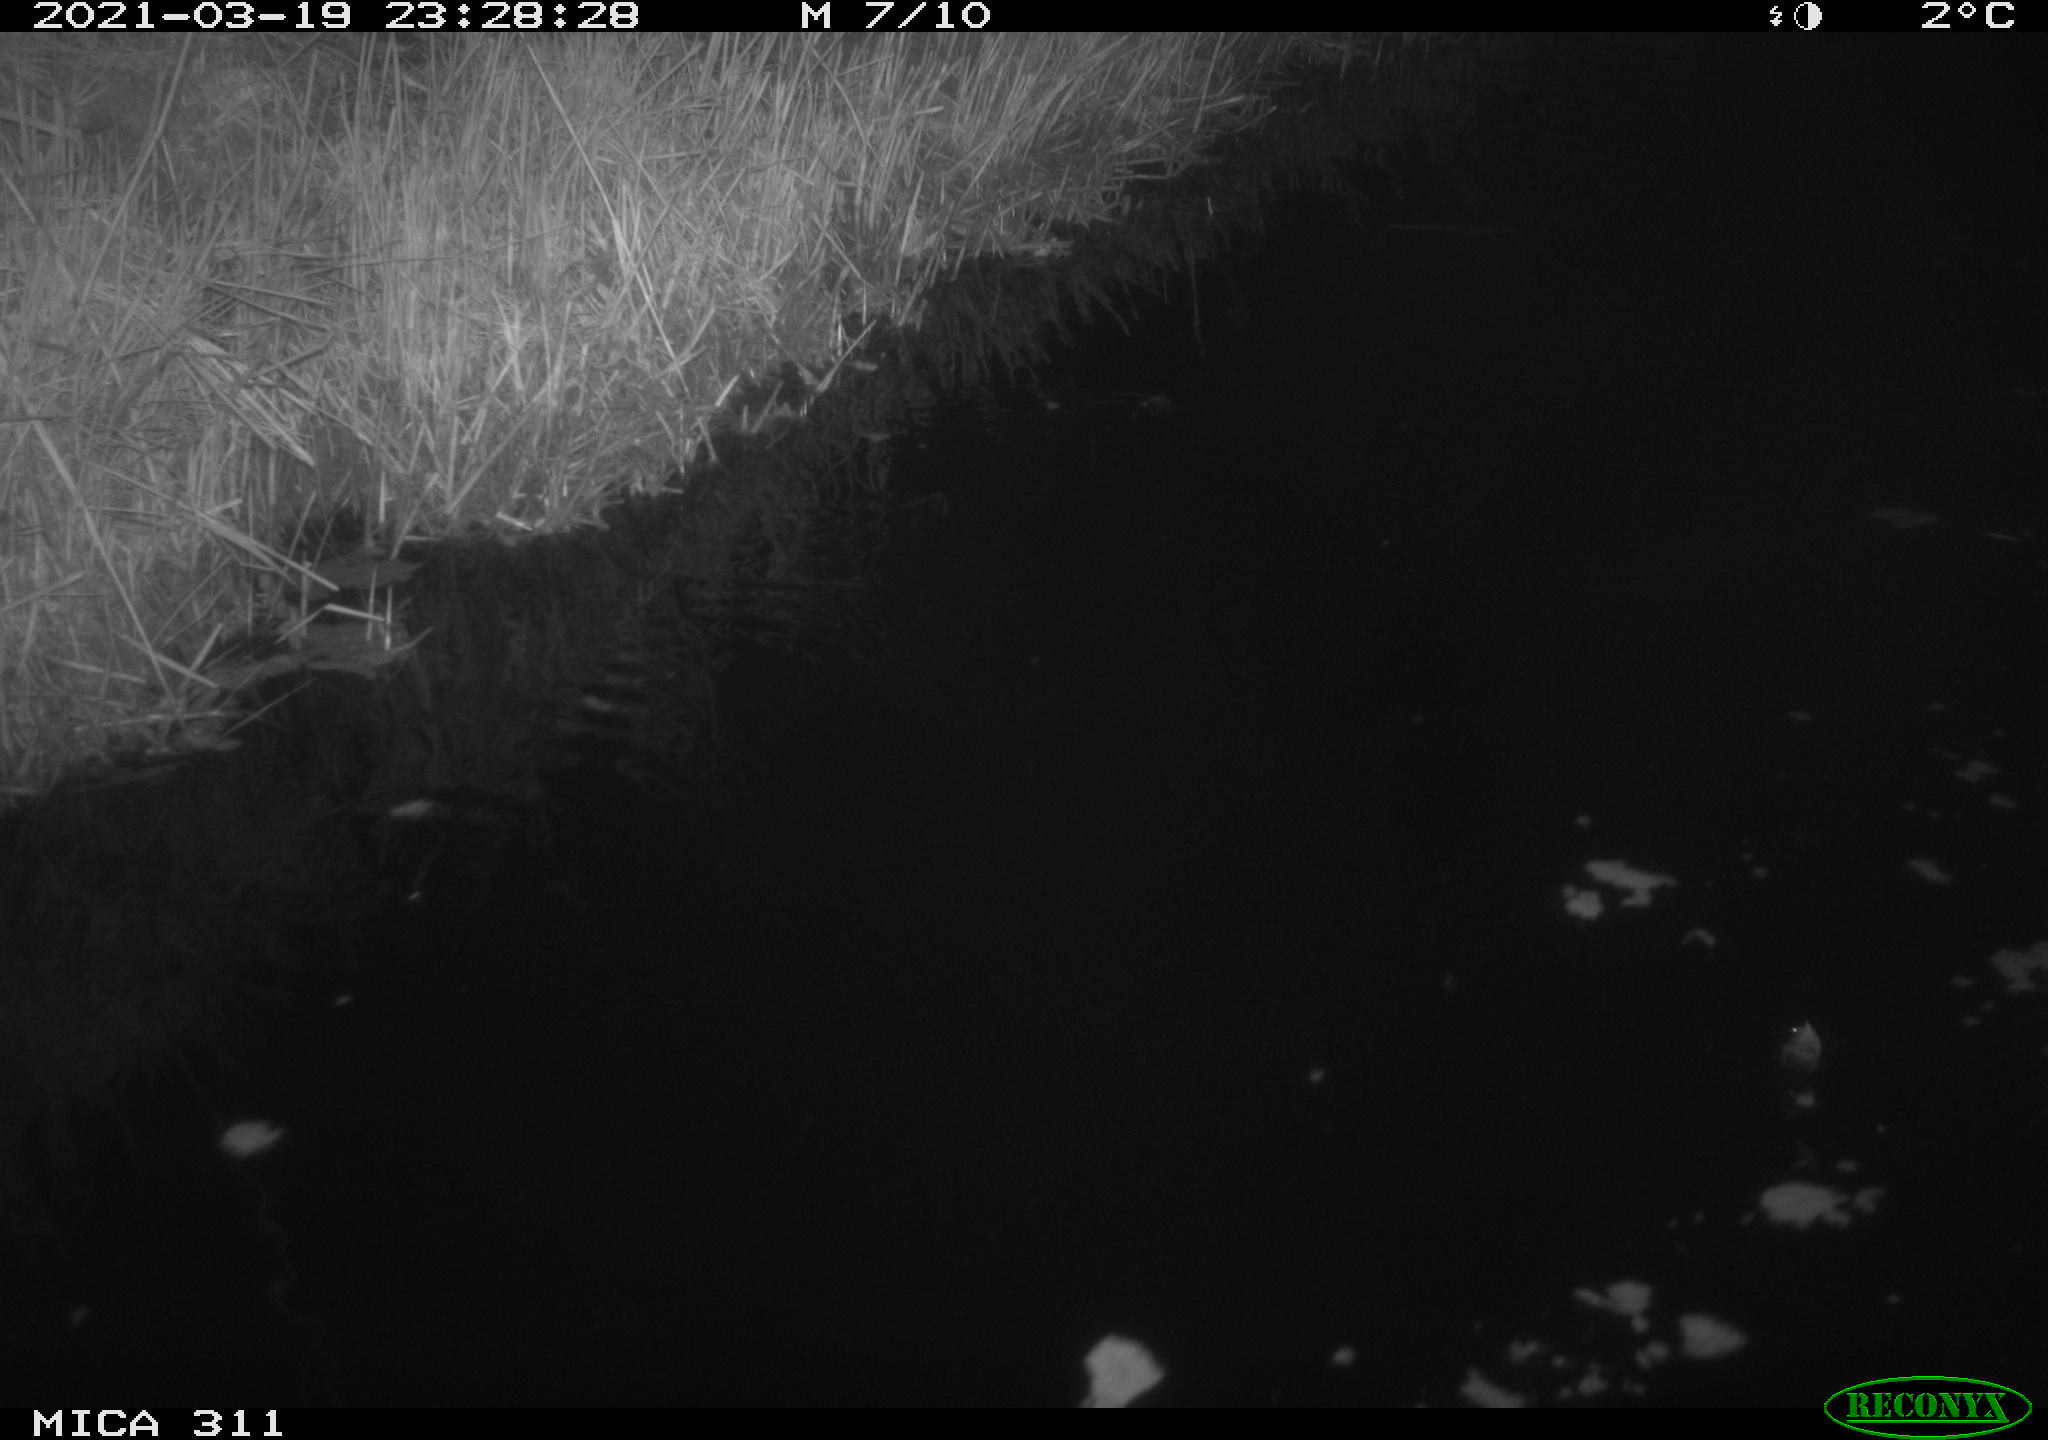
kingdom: Animalia
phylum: Chordata
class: Aves
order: Anseriformes
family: Anatidae
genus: Anas
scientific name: Anas
